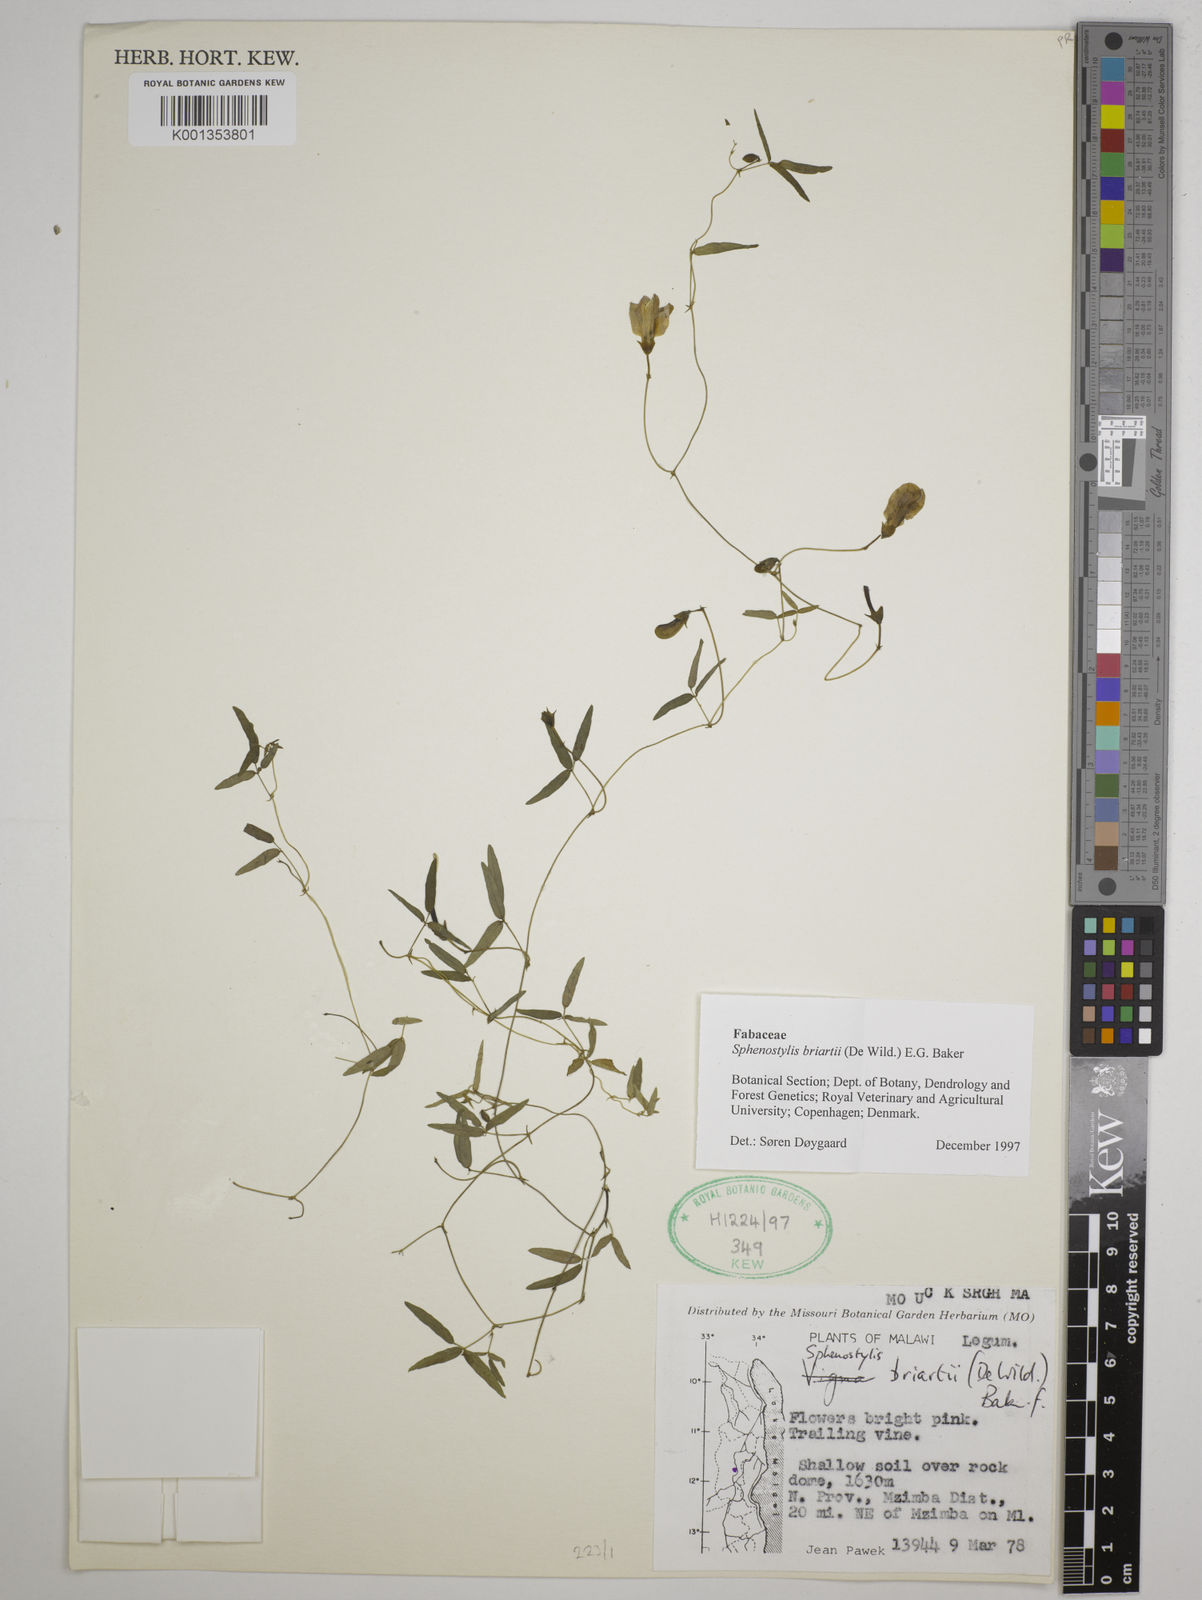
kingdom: Plantae
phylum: Tracheophyta
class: Magnoliopsida
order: Fabales
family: Fabaceae
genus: Sphenostylis
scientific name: Sphenostylis briartii
